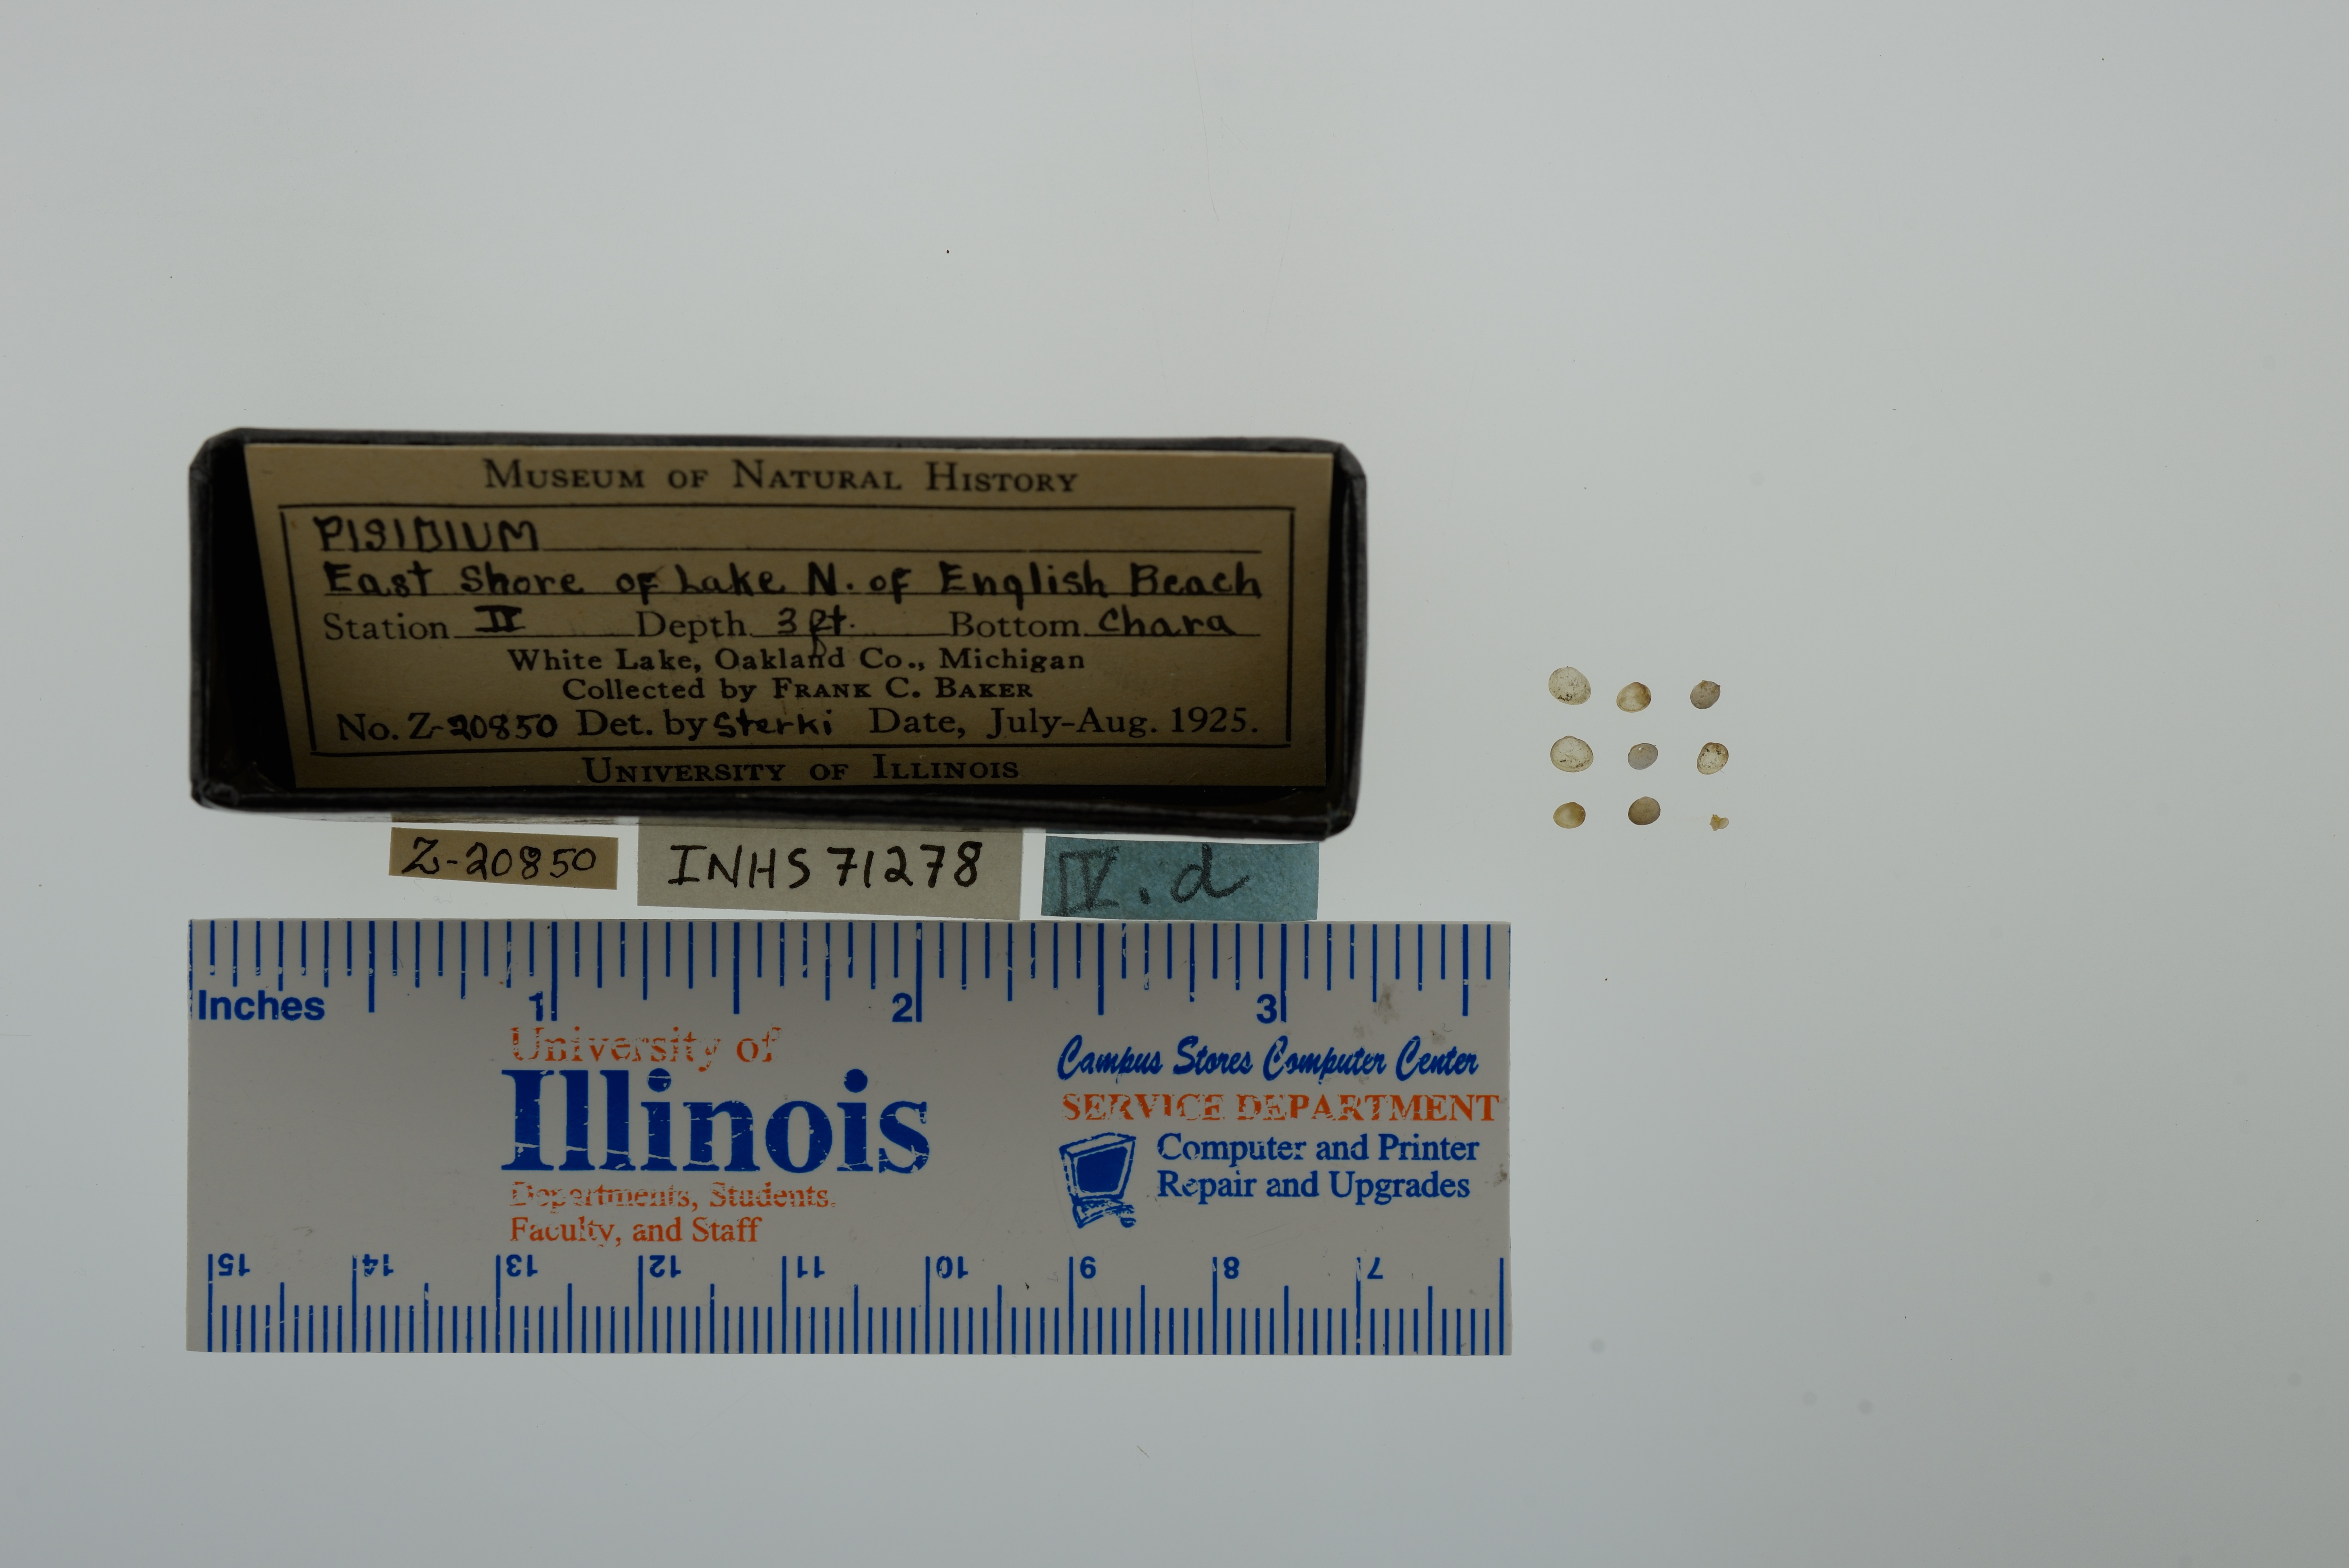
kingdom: Animalia
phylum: Mollusca
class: Bivalvia
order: Sphaeriida
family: Sphaeriidae
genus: Pisidium
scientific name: Pisidium
